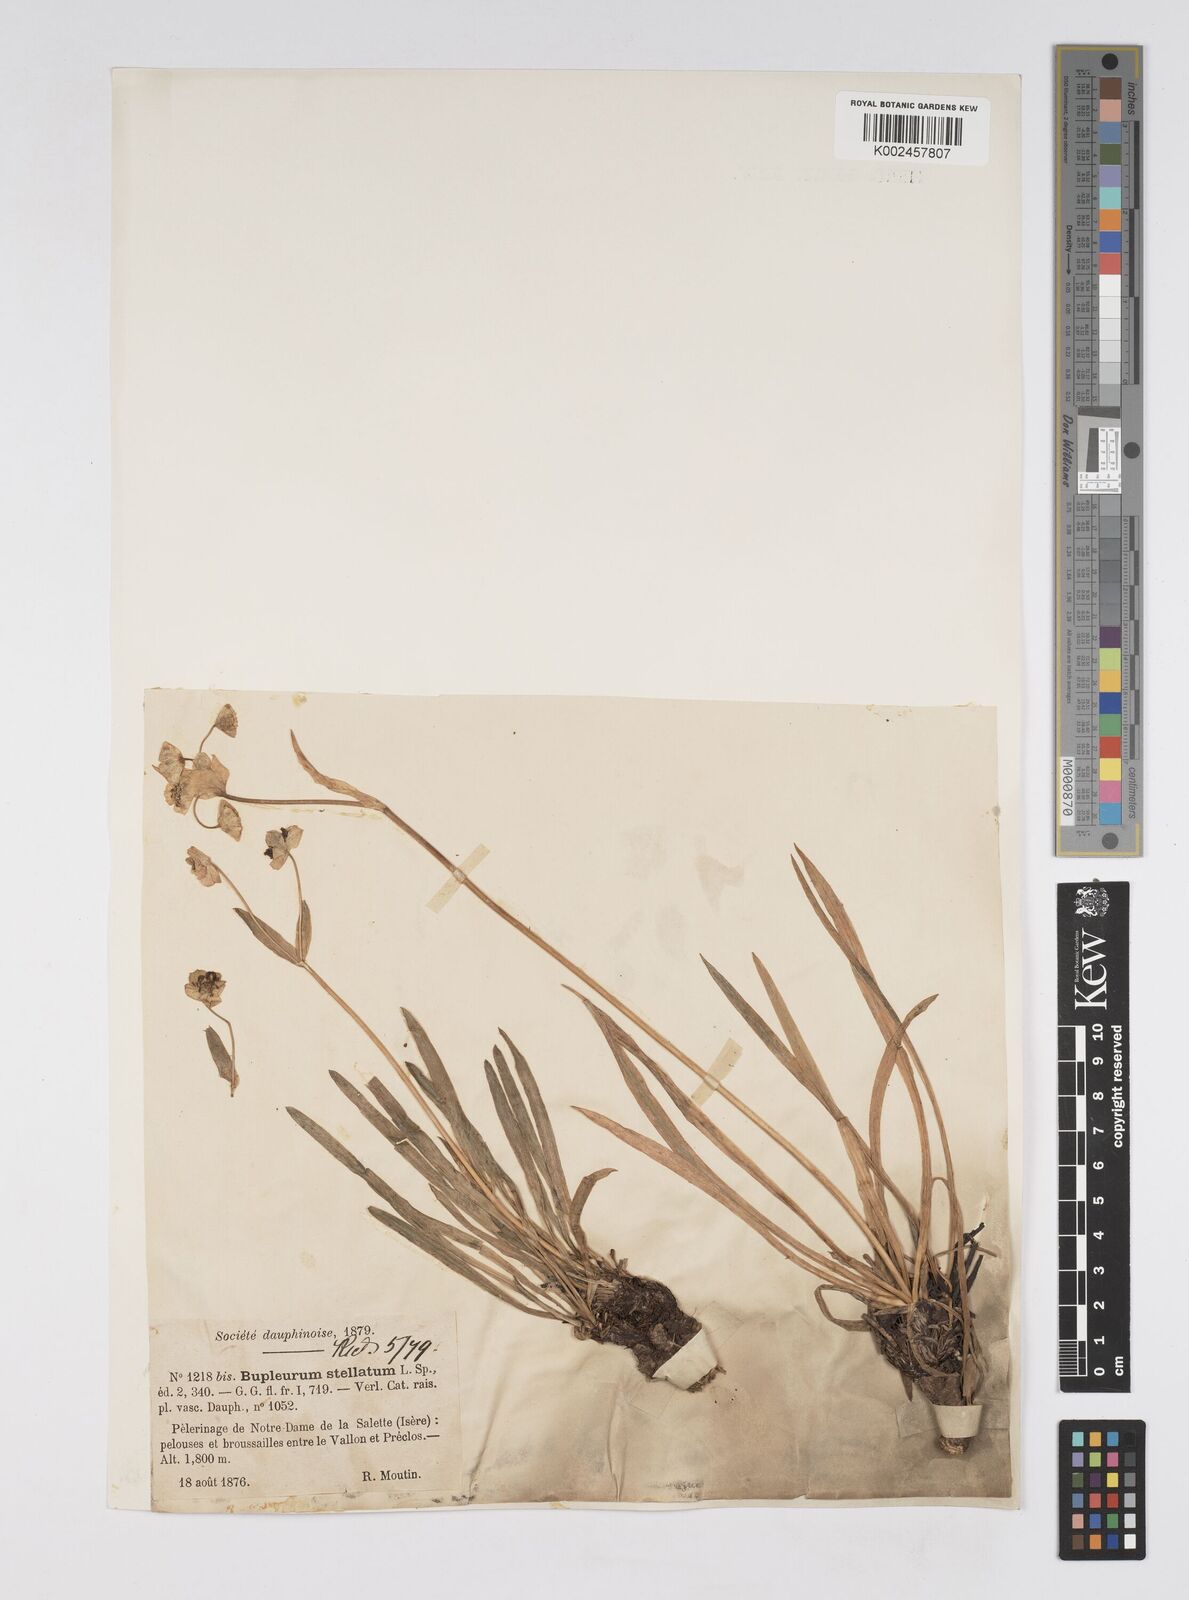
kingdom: Plantae
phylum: Tracheophyta
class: Magnoliopsida
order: Apiales
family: Apiaceae
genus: Bupleurum
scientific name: Bupleurum stellatum
